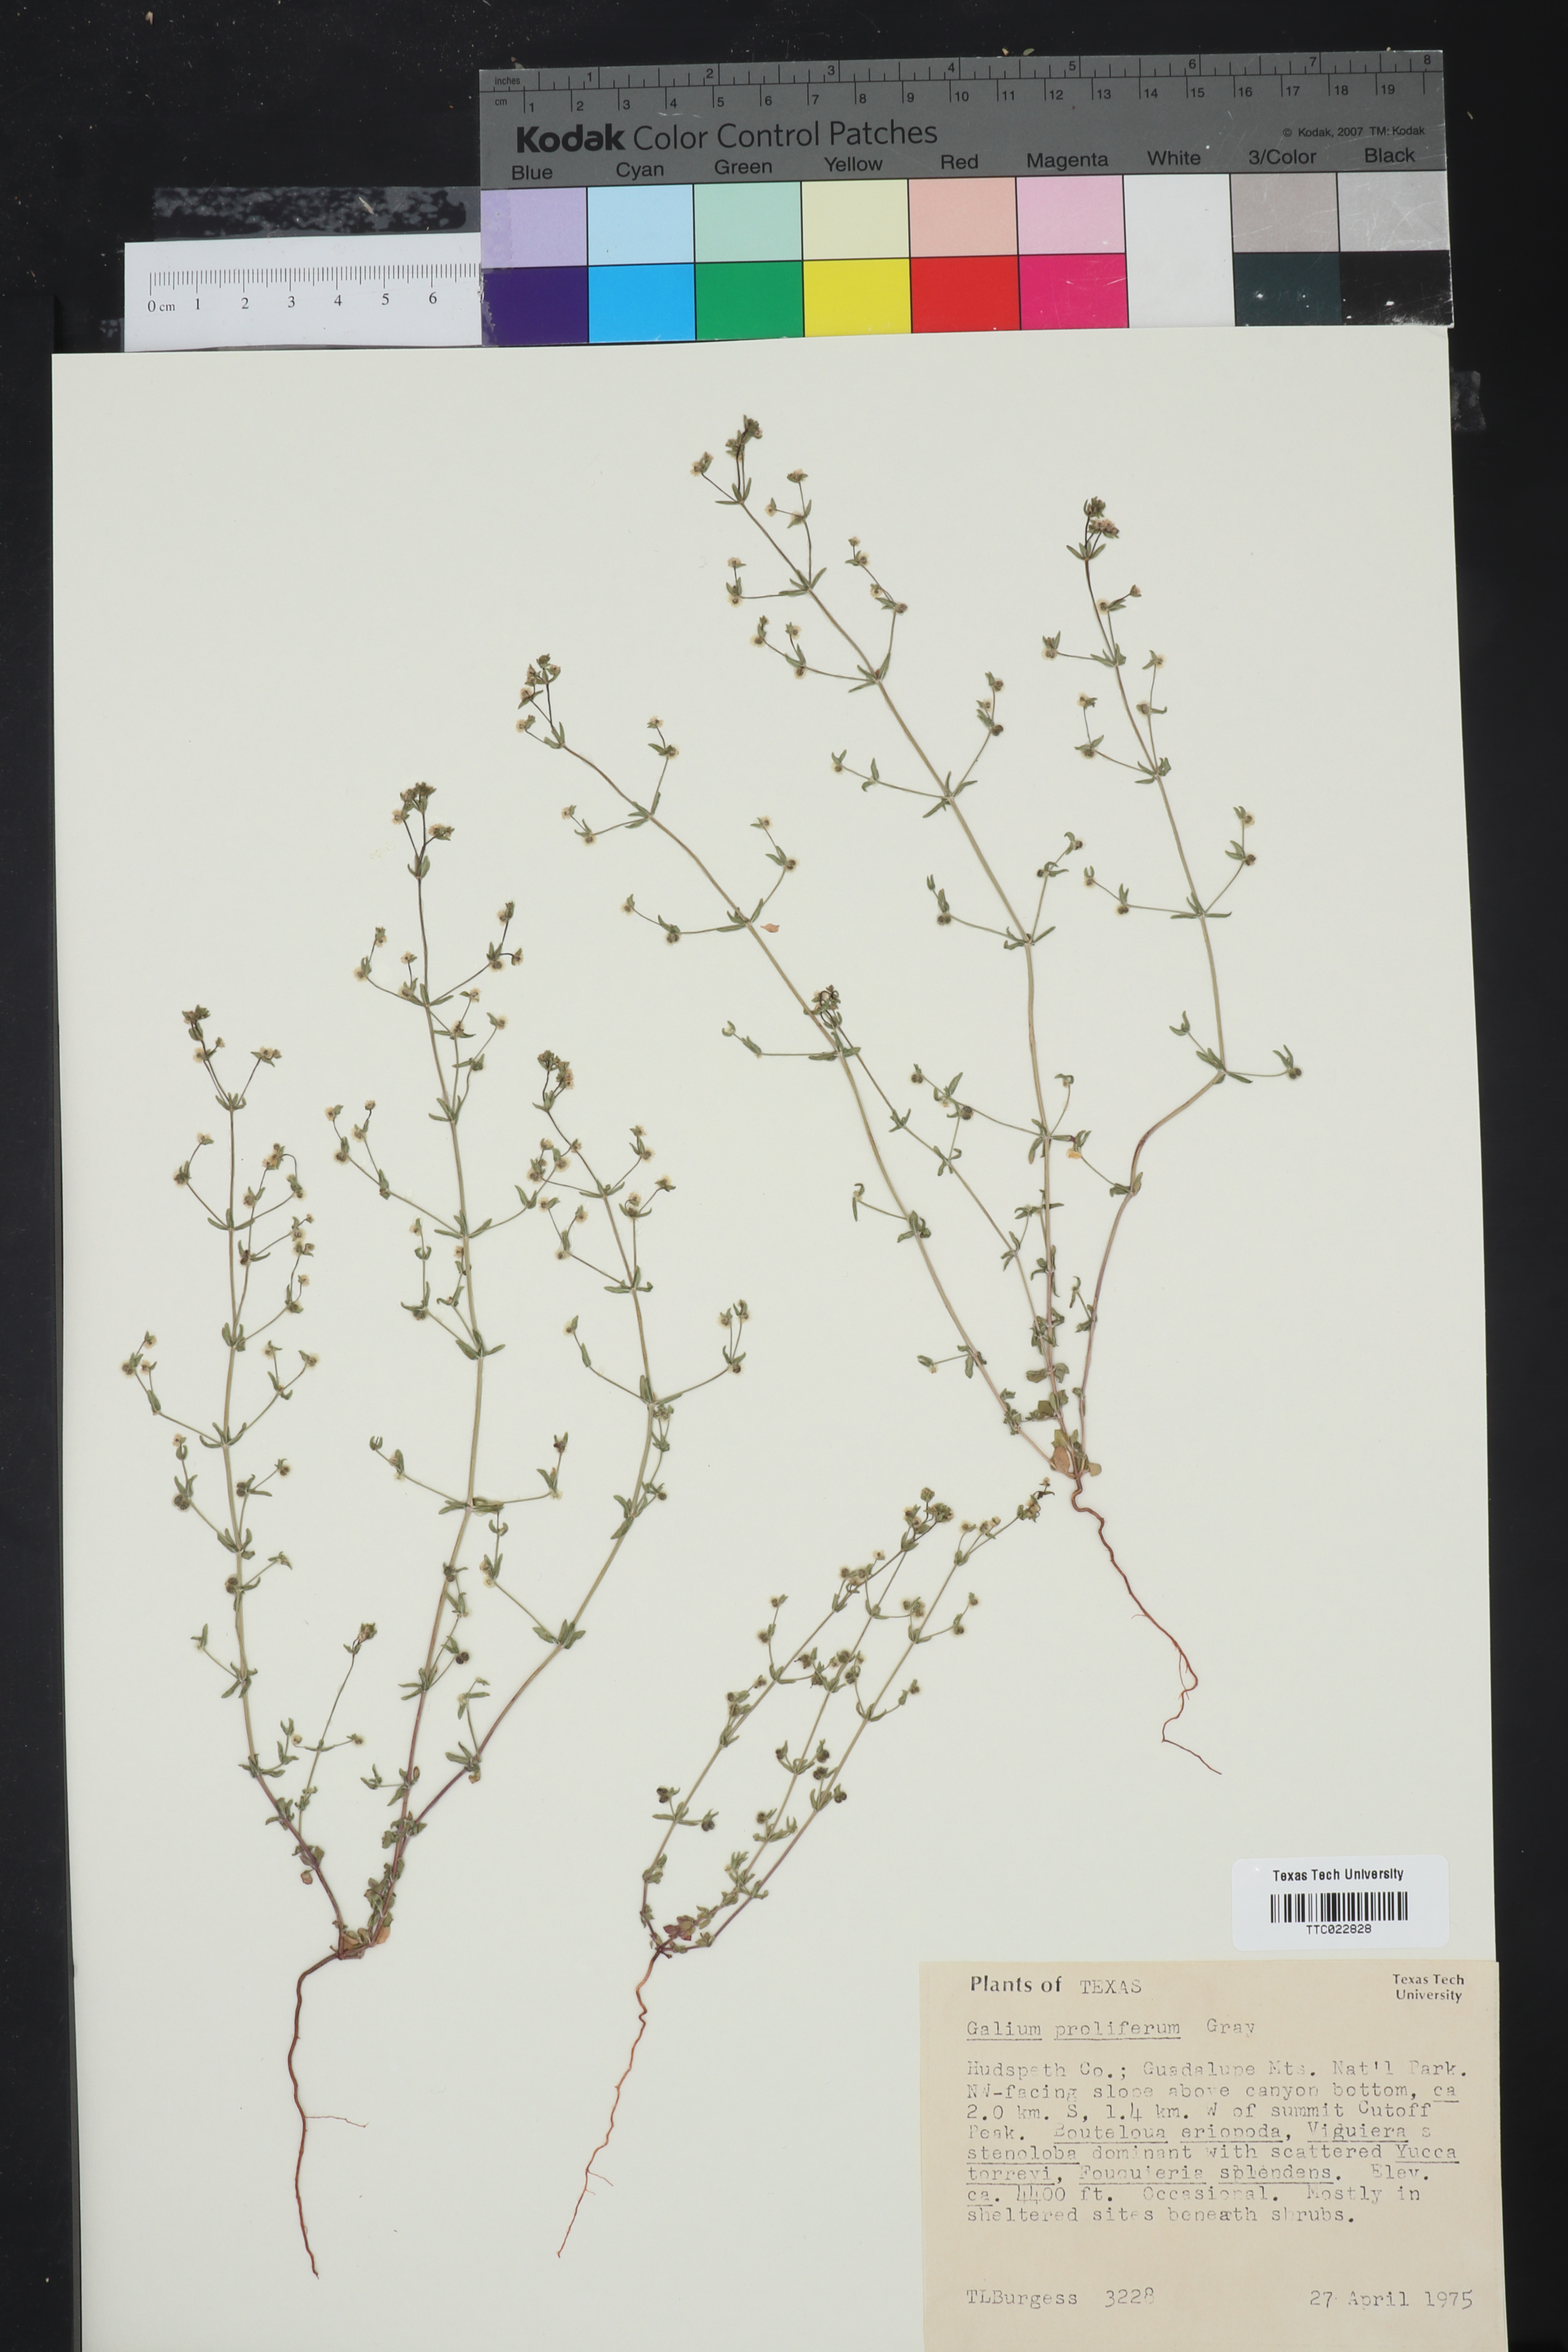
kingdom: Plantae
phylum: Tracheophyta
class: Magnoliopsida
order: Gentianales
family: Rubiaceae
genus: Galium
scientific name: Galium proliferum
